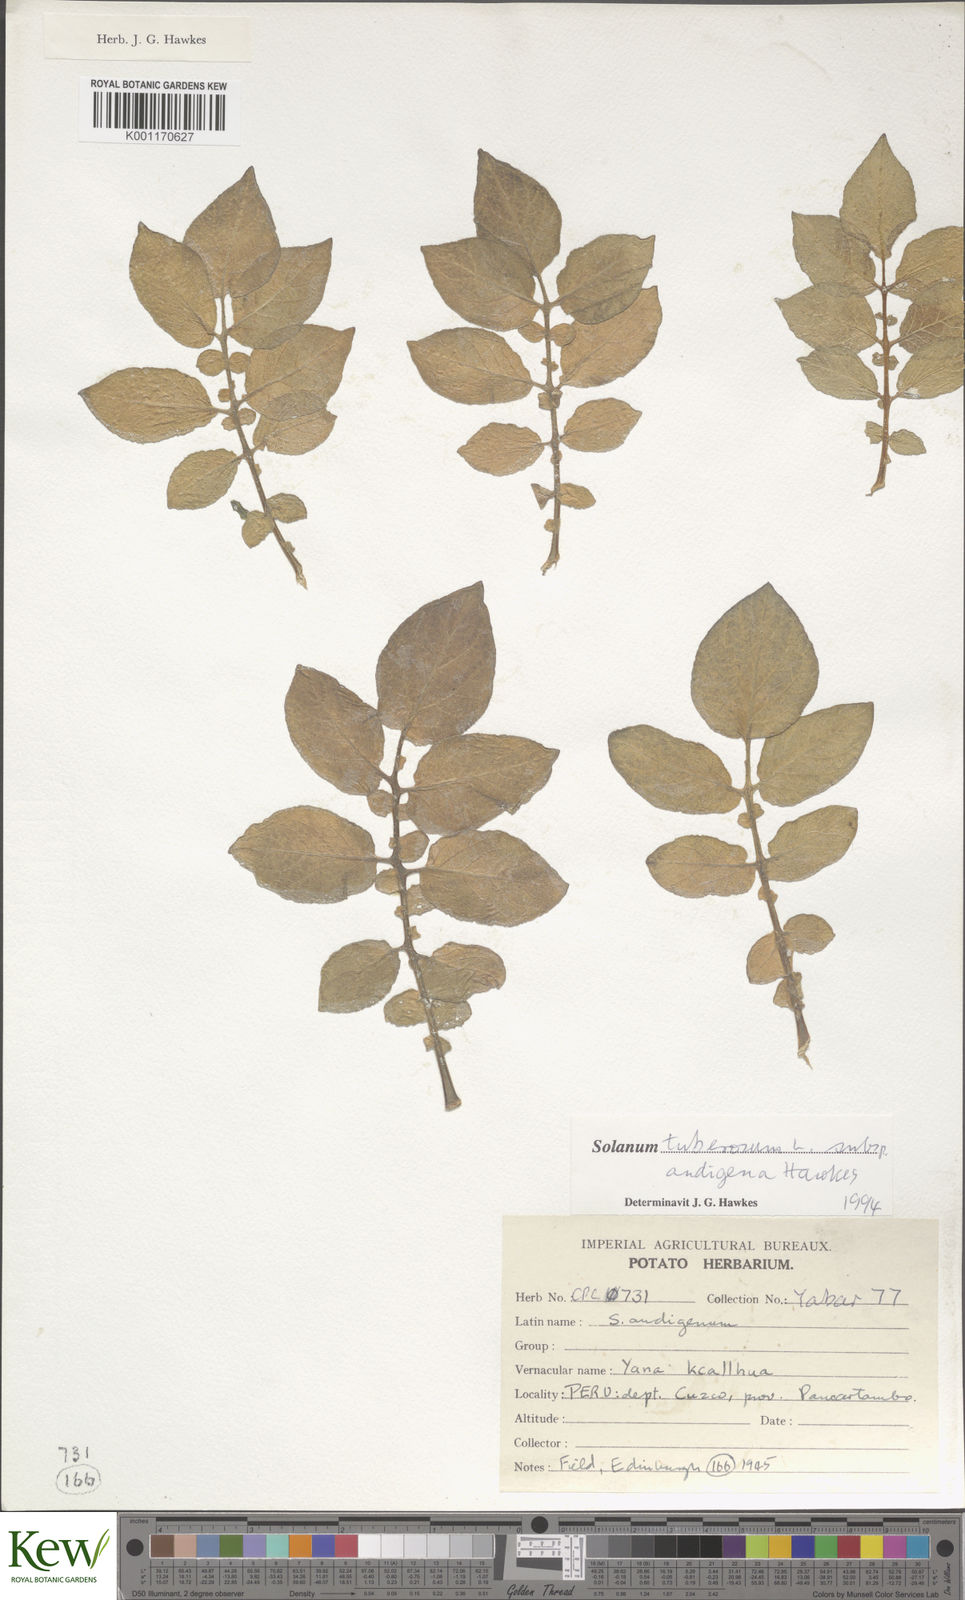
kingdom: Plantae
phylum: Tracheophyta
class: Magnoliopsida
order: Solanales
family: Solanaceae
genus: Solanum
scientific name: Solanum tuberosum
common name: Potato
